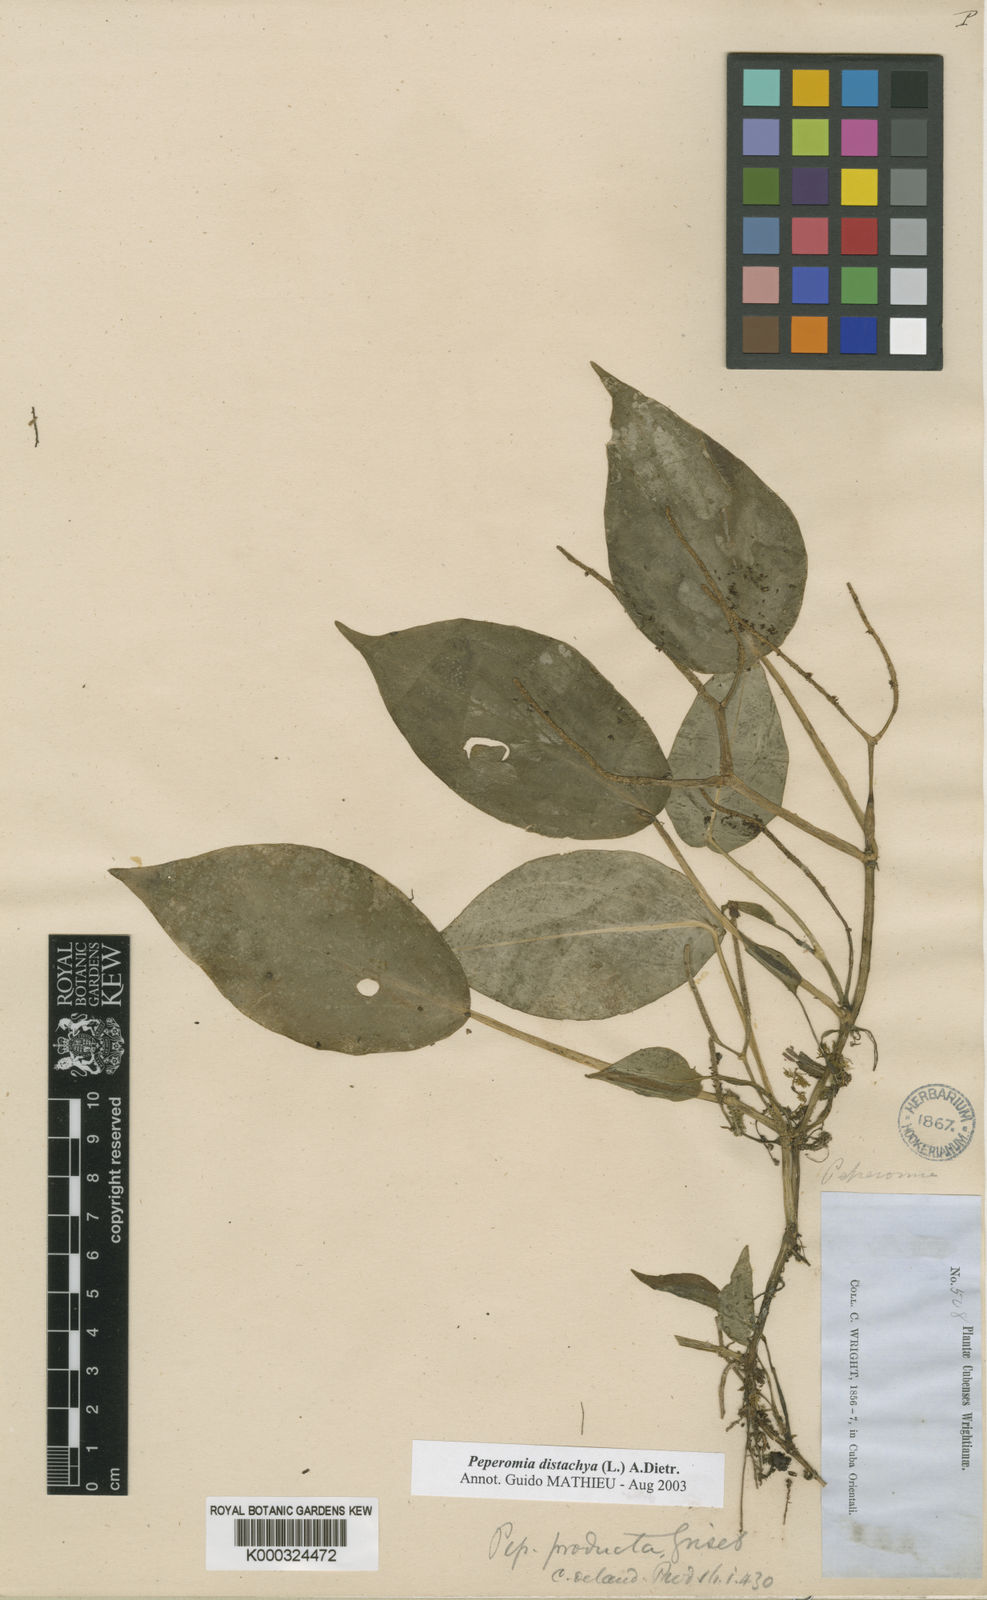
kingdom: Plantae
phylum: Tracheophyta
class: Magnoliopsida
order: Piperales
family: Piperaceae
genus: Peperomia
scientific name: Peperomia distachyos
